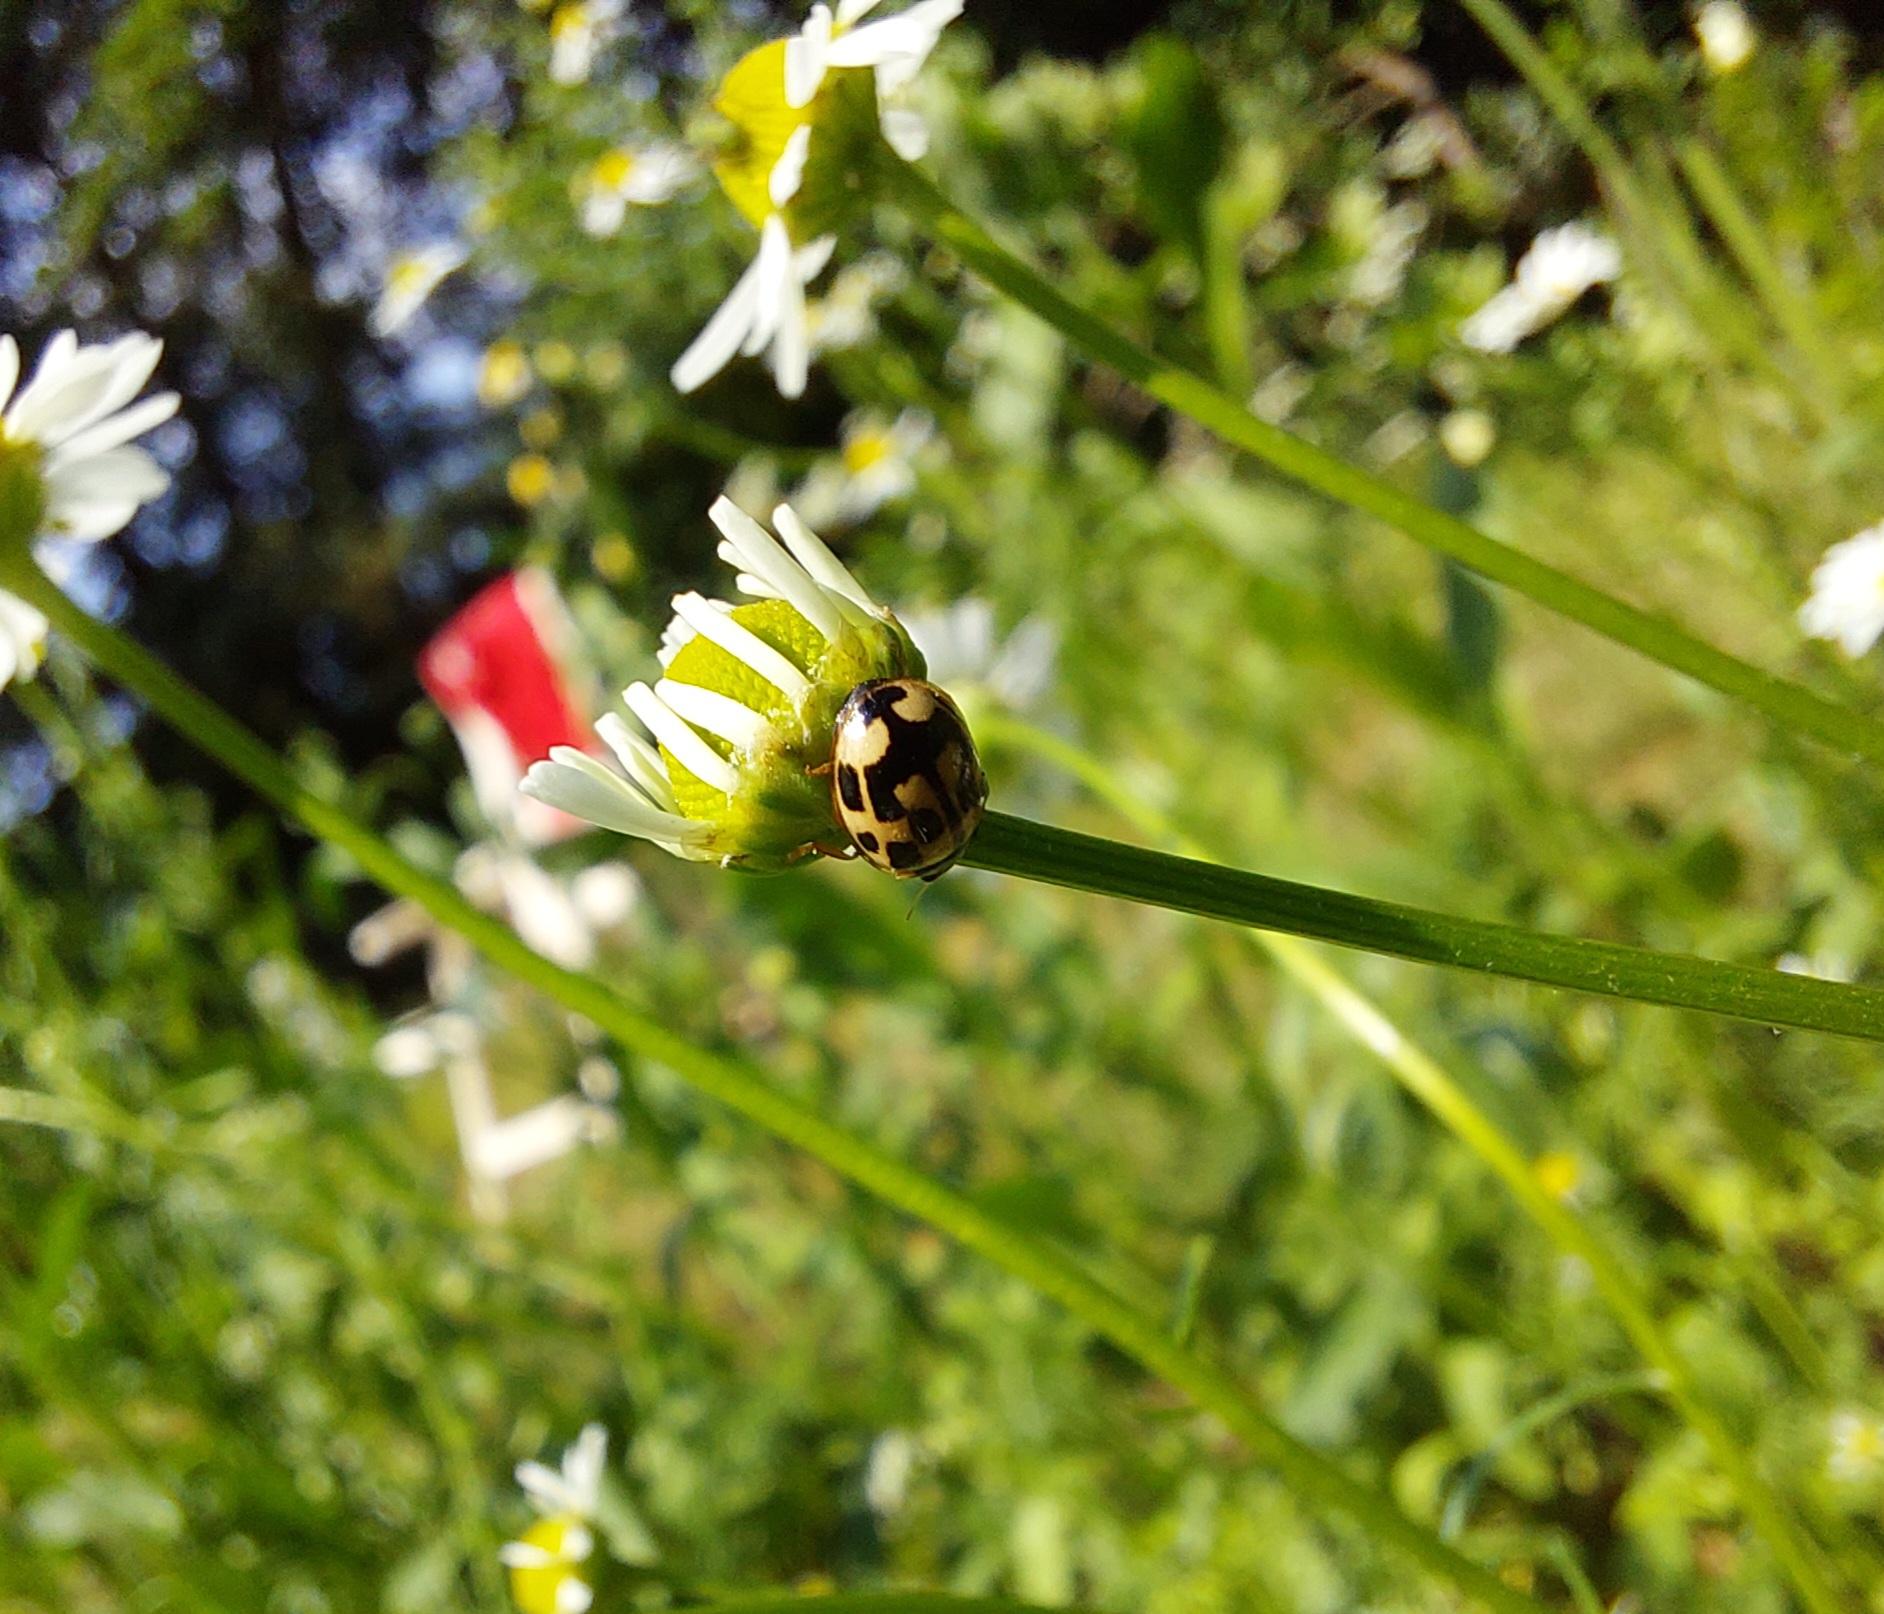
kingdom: Animalia
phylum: Arthropoda
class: Insecta
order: Coleoptera
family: Coccinellidae
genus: Propylaea
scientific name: Propylaea quatuordecimpunctata
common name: Skakbræt
